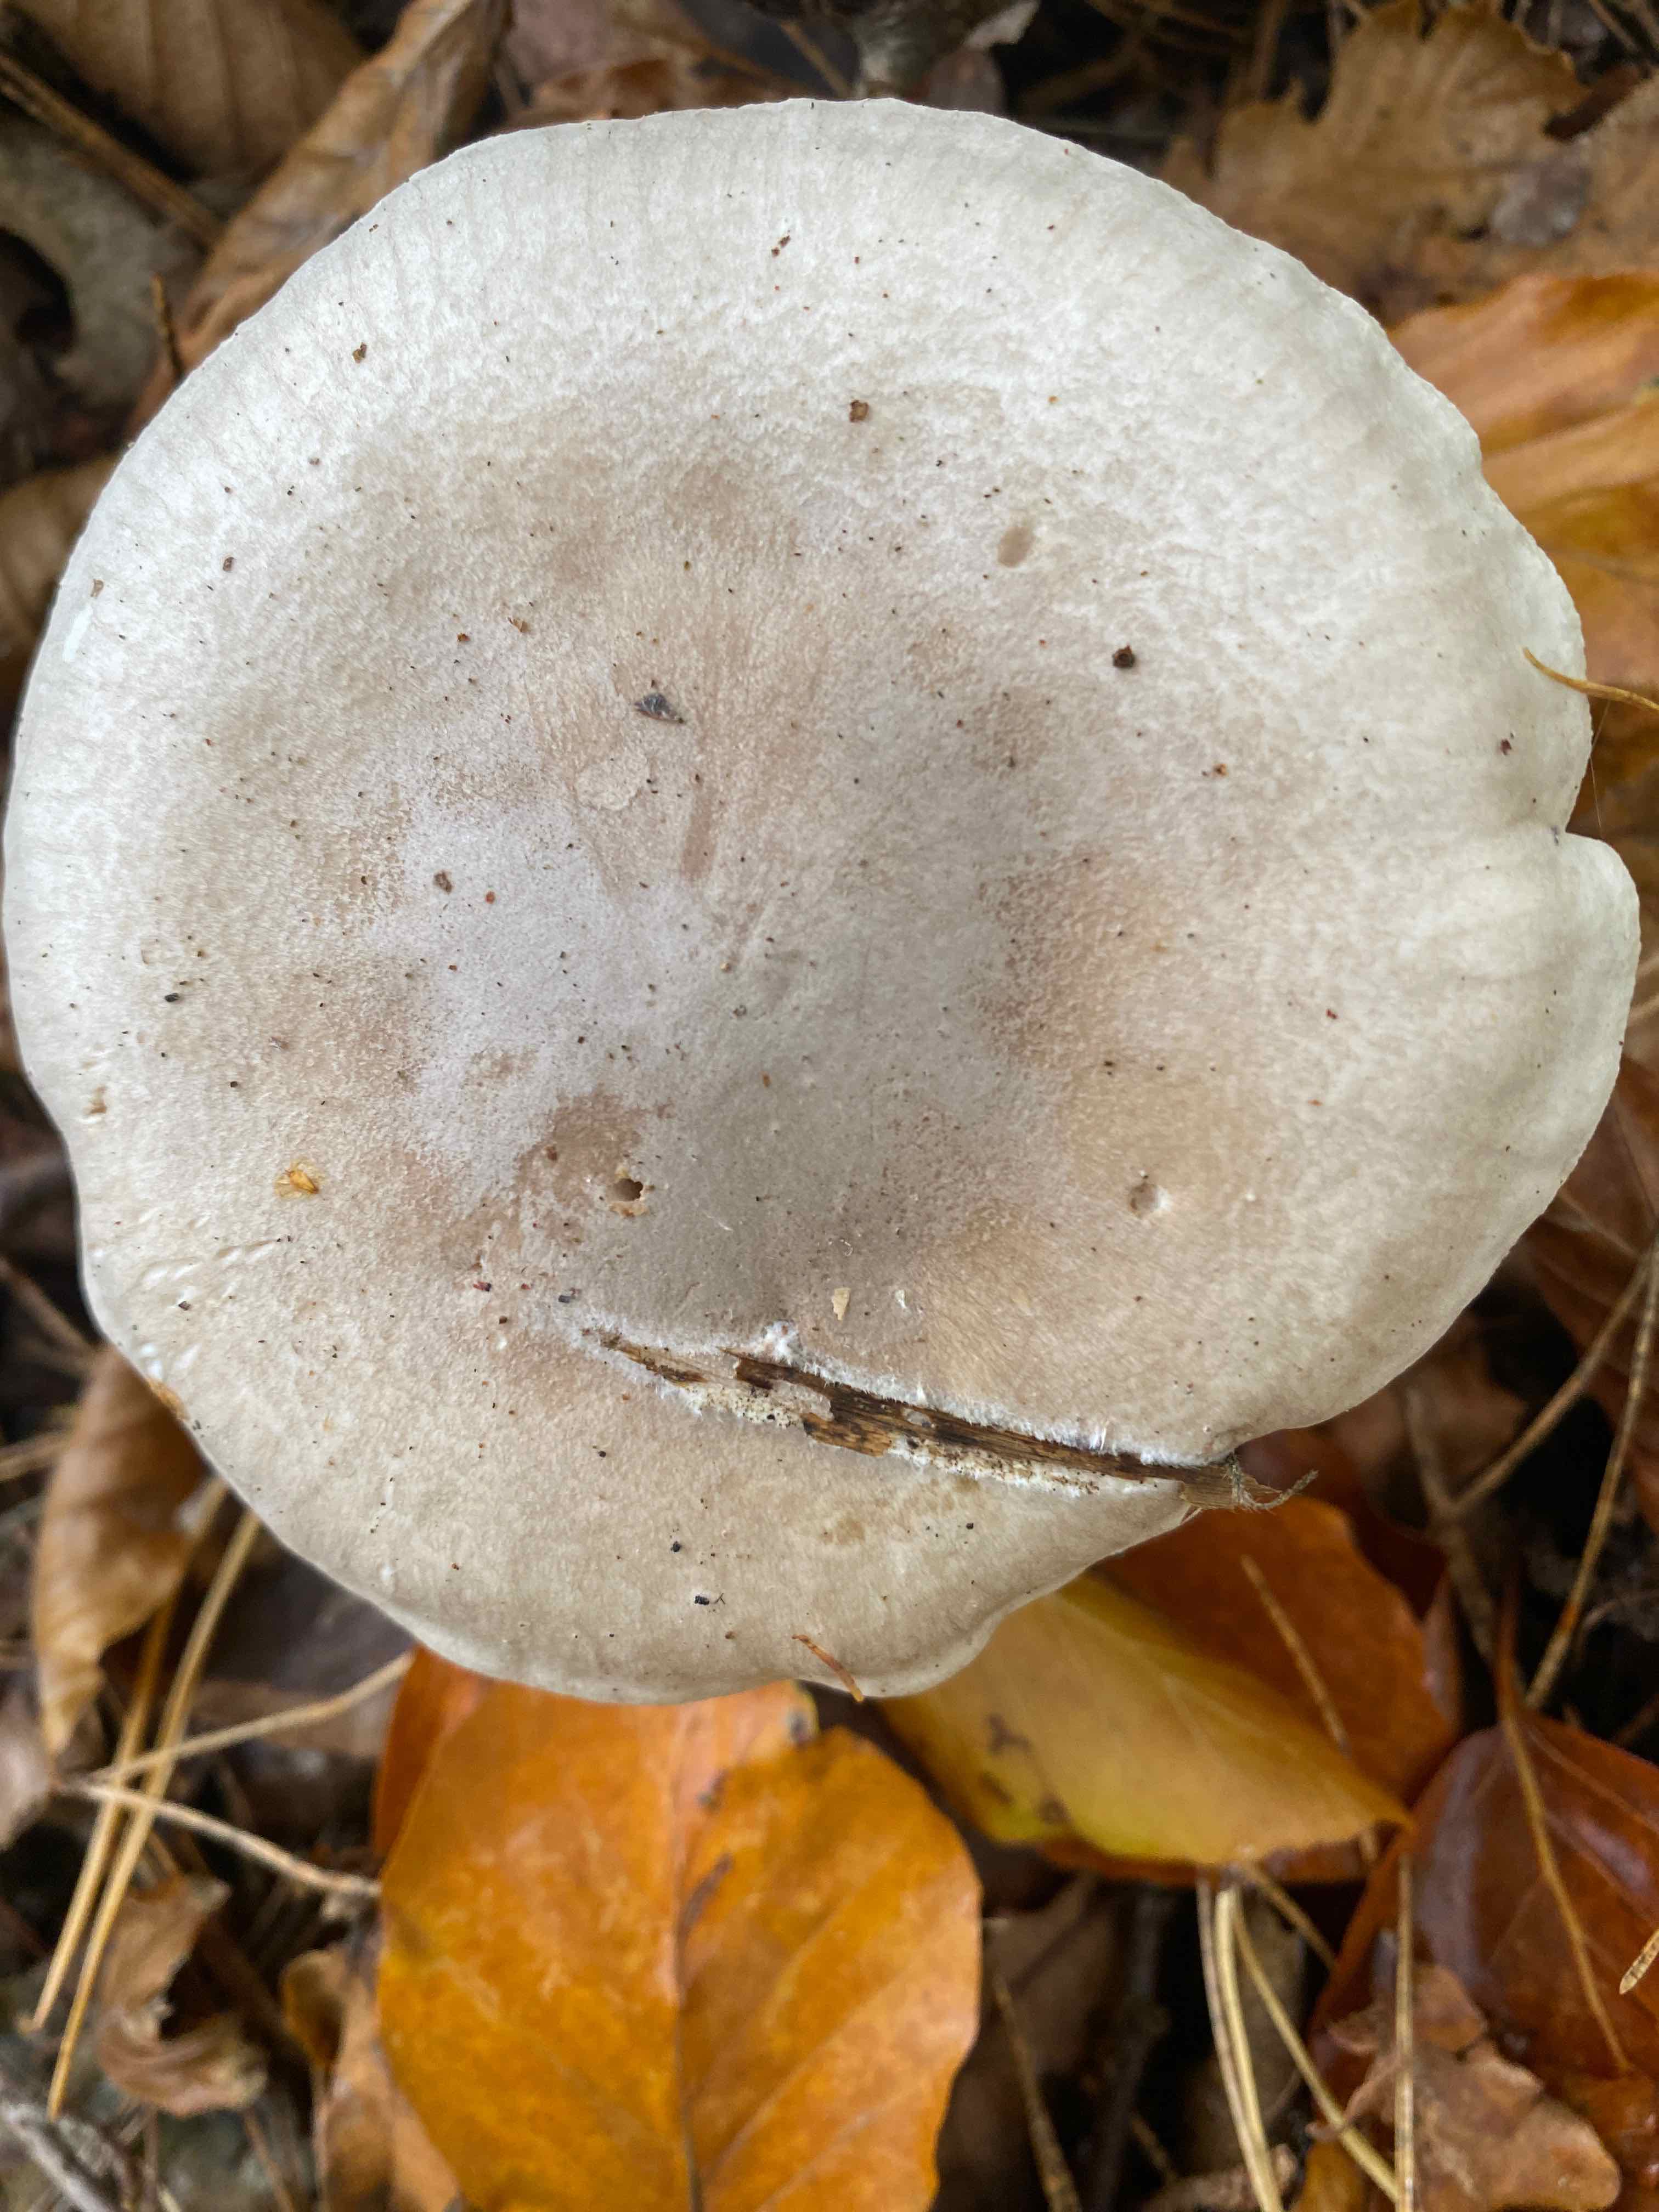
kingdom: Fungi
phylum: Basidiomycota
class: Agaricomycetes
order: Agaricales
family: Tricholomataceae
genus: Clitocybe
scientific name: Clitocybe nebularis
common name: tåge-tragthat
